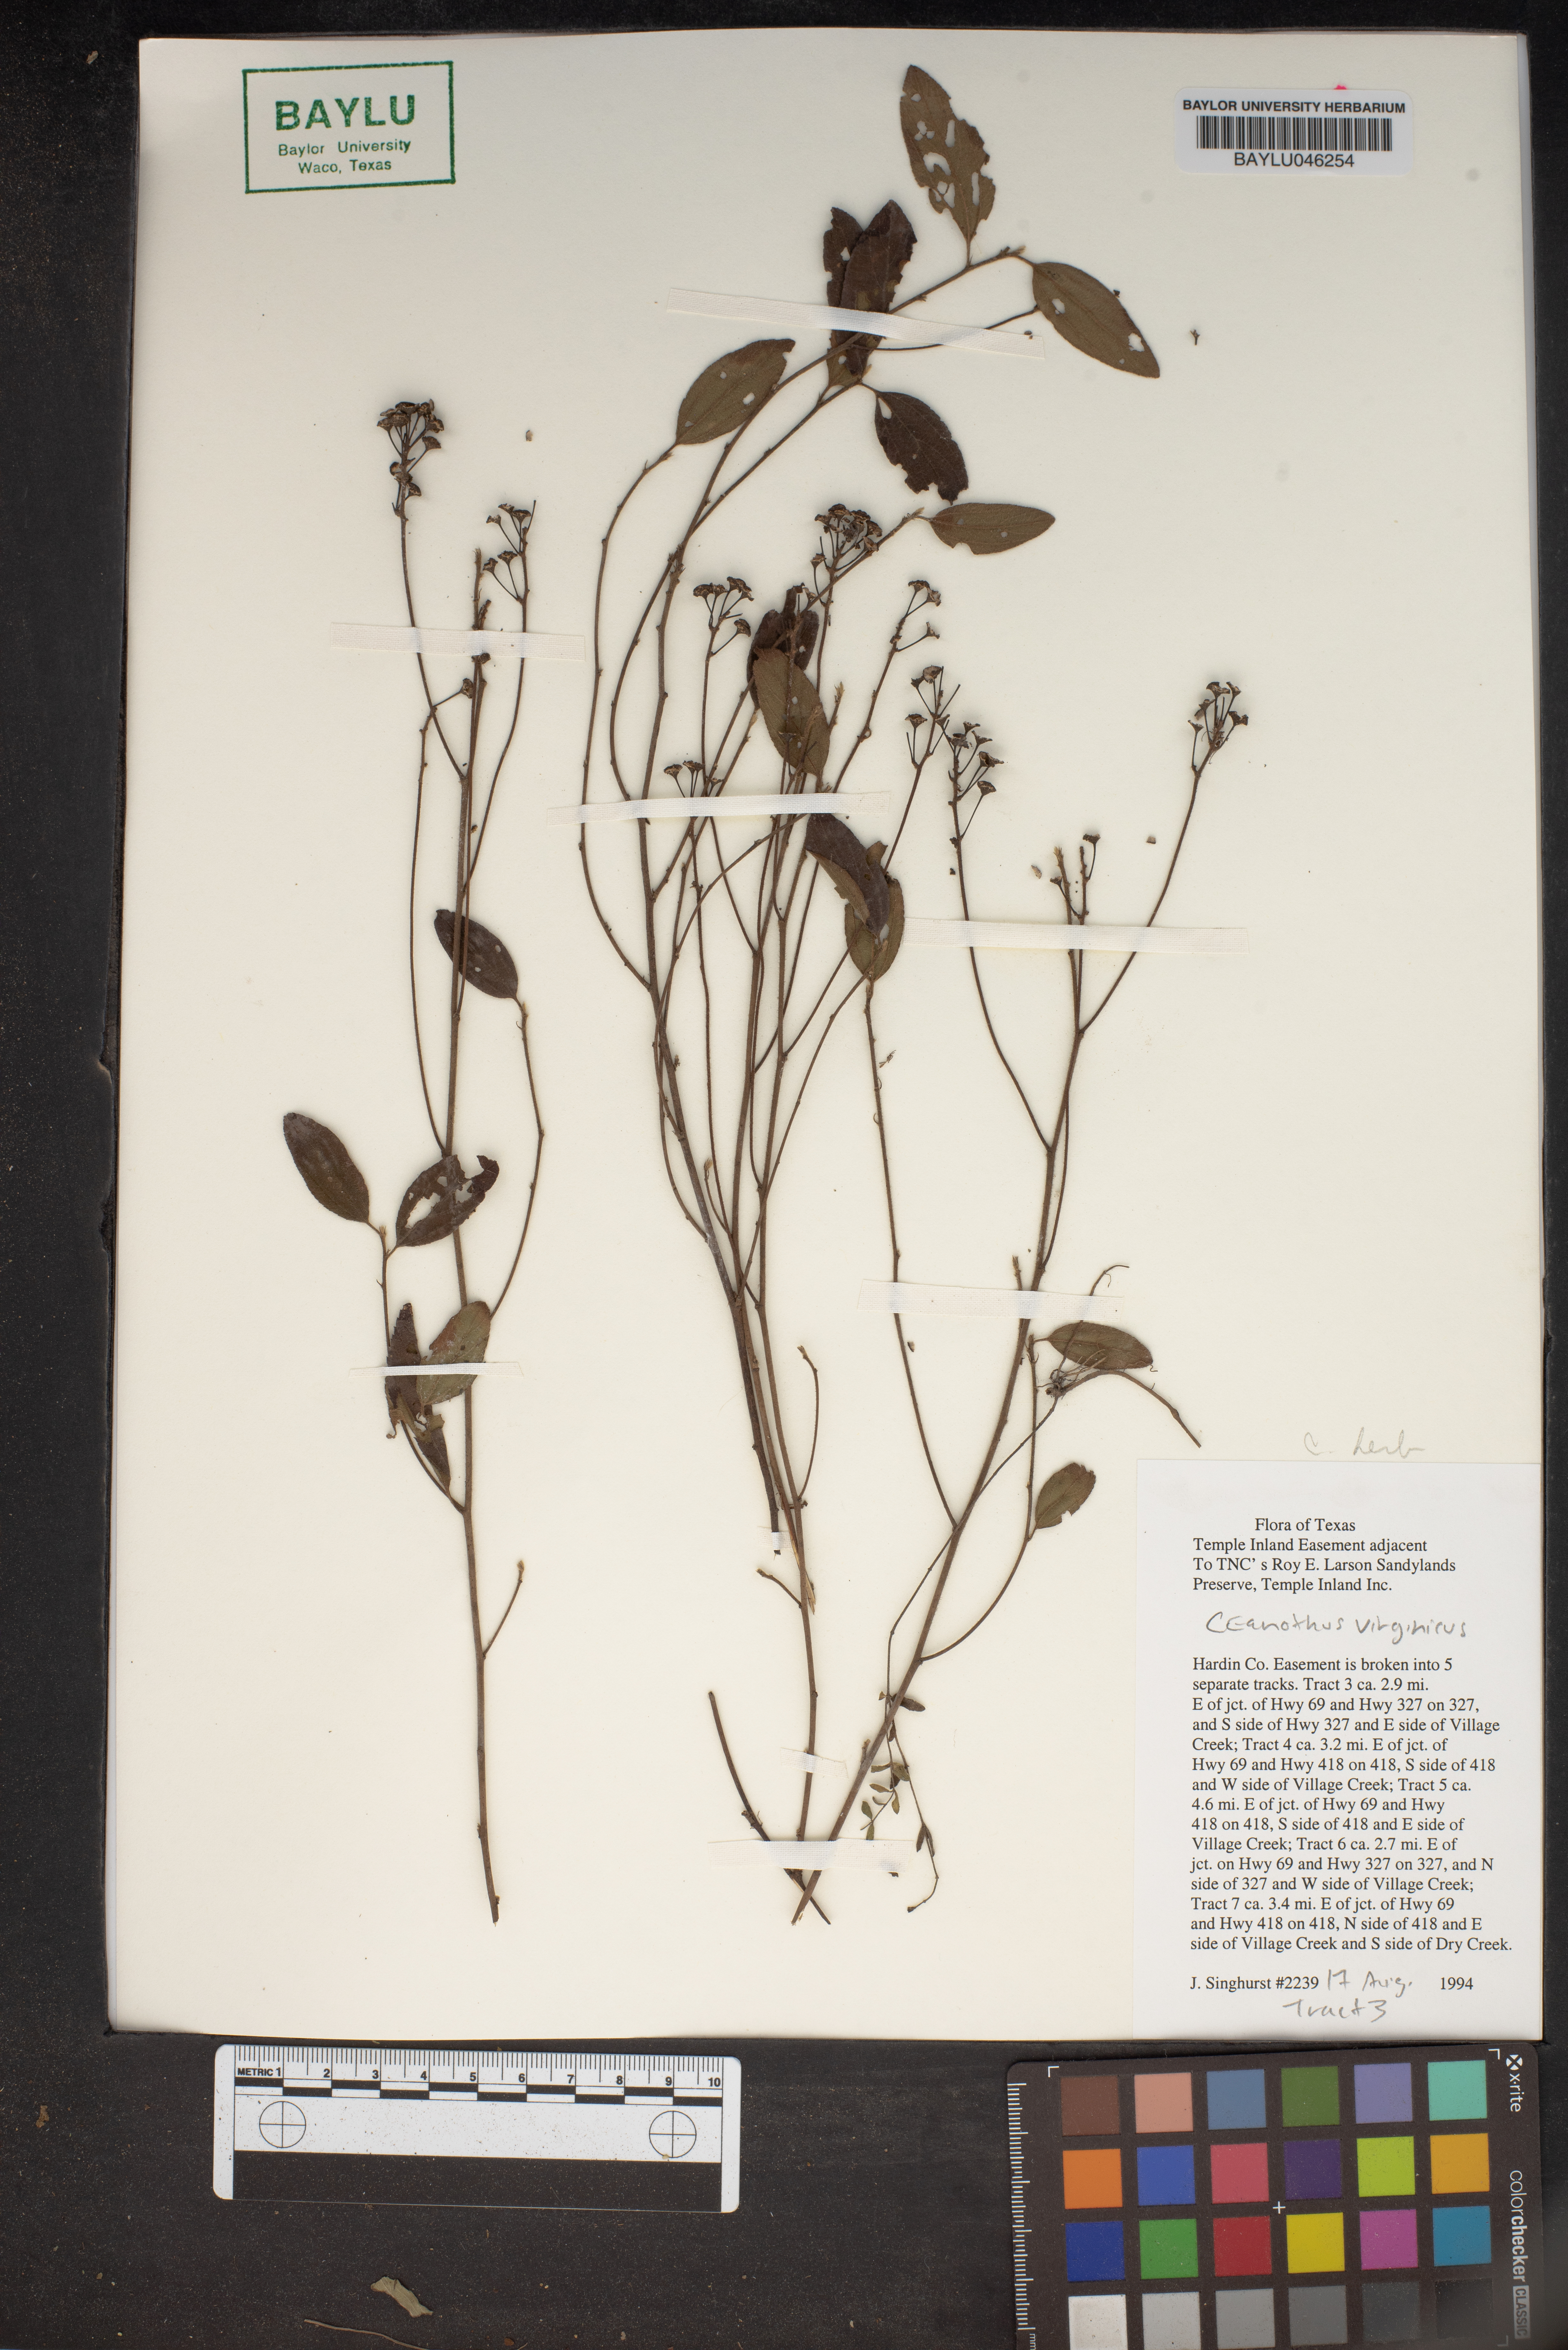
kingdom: Plantae
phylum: Tracheophyta
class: Magnoliopsida
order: Rosales
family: Rhamnaceae
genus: Ceanothus
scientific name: Ceanothus
